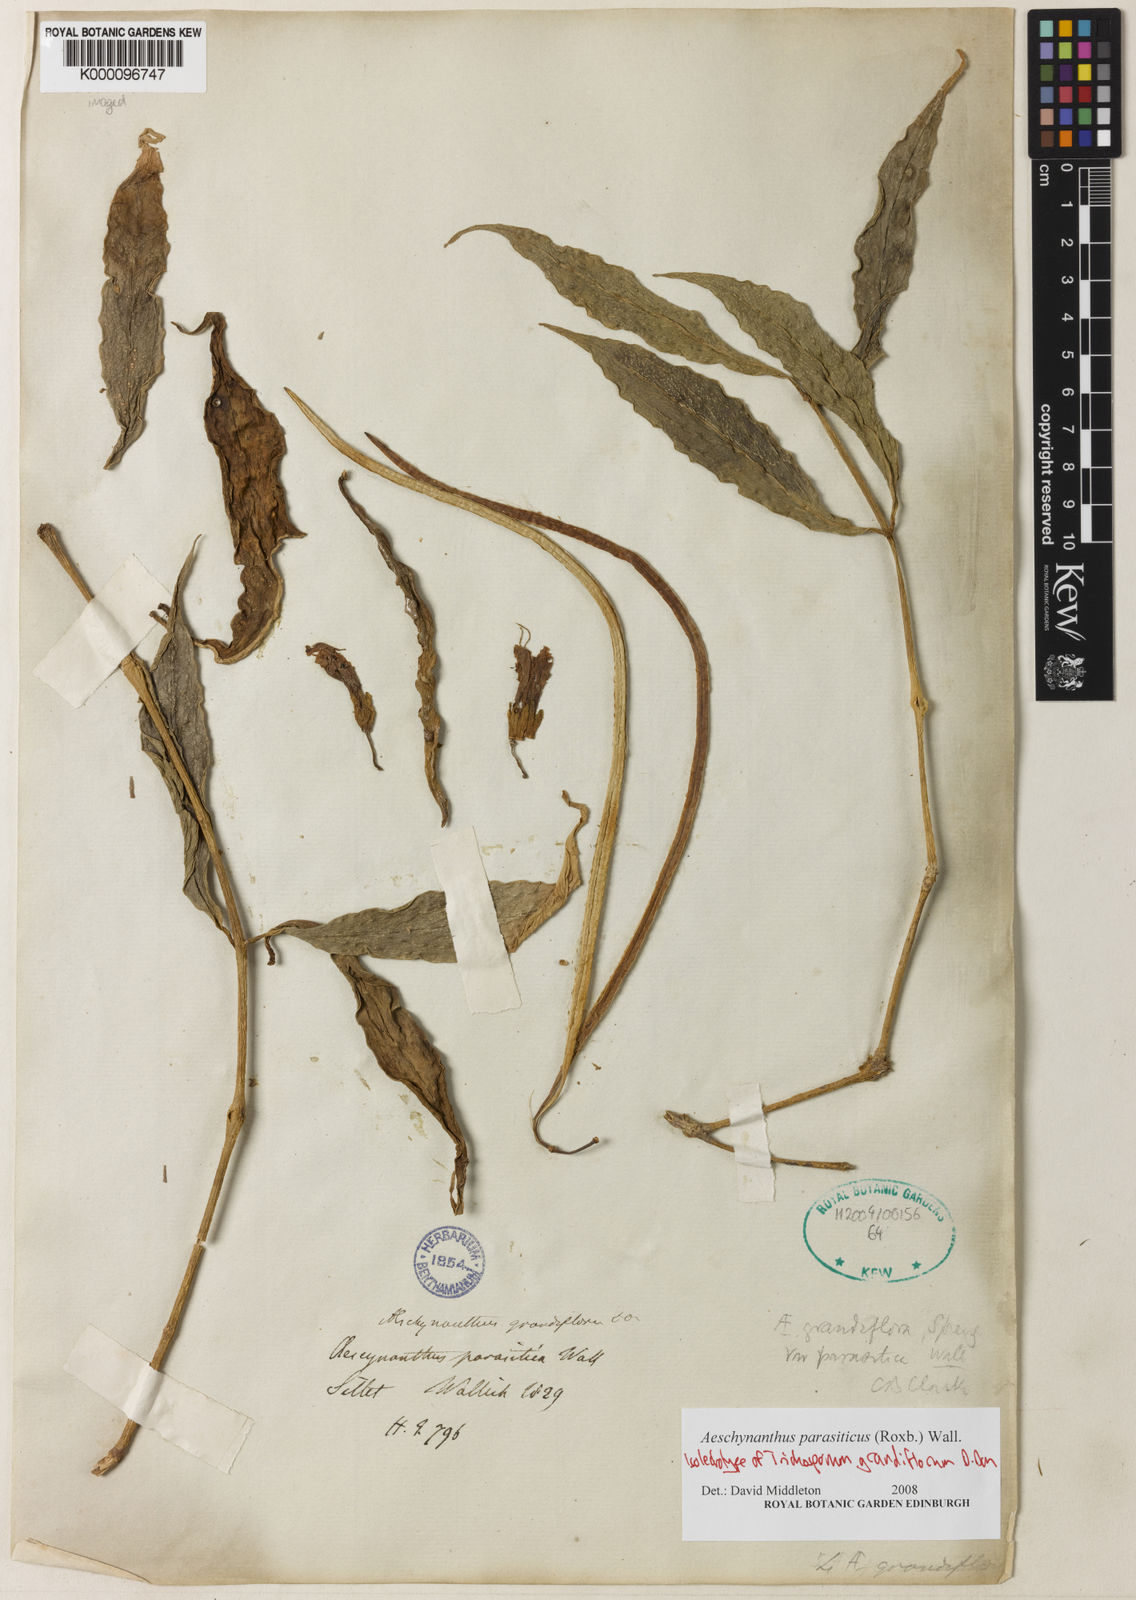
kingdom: Plantae
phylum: Tracheophyta
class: Magnoliopsida
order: Lamiales
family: Gesneriaceae
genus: Aeschynanthus
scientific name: Aeschynanthus parasiticus
